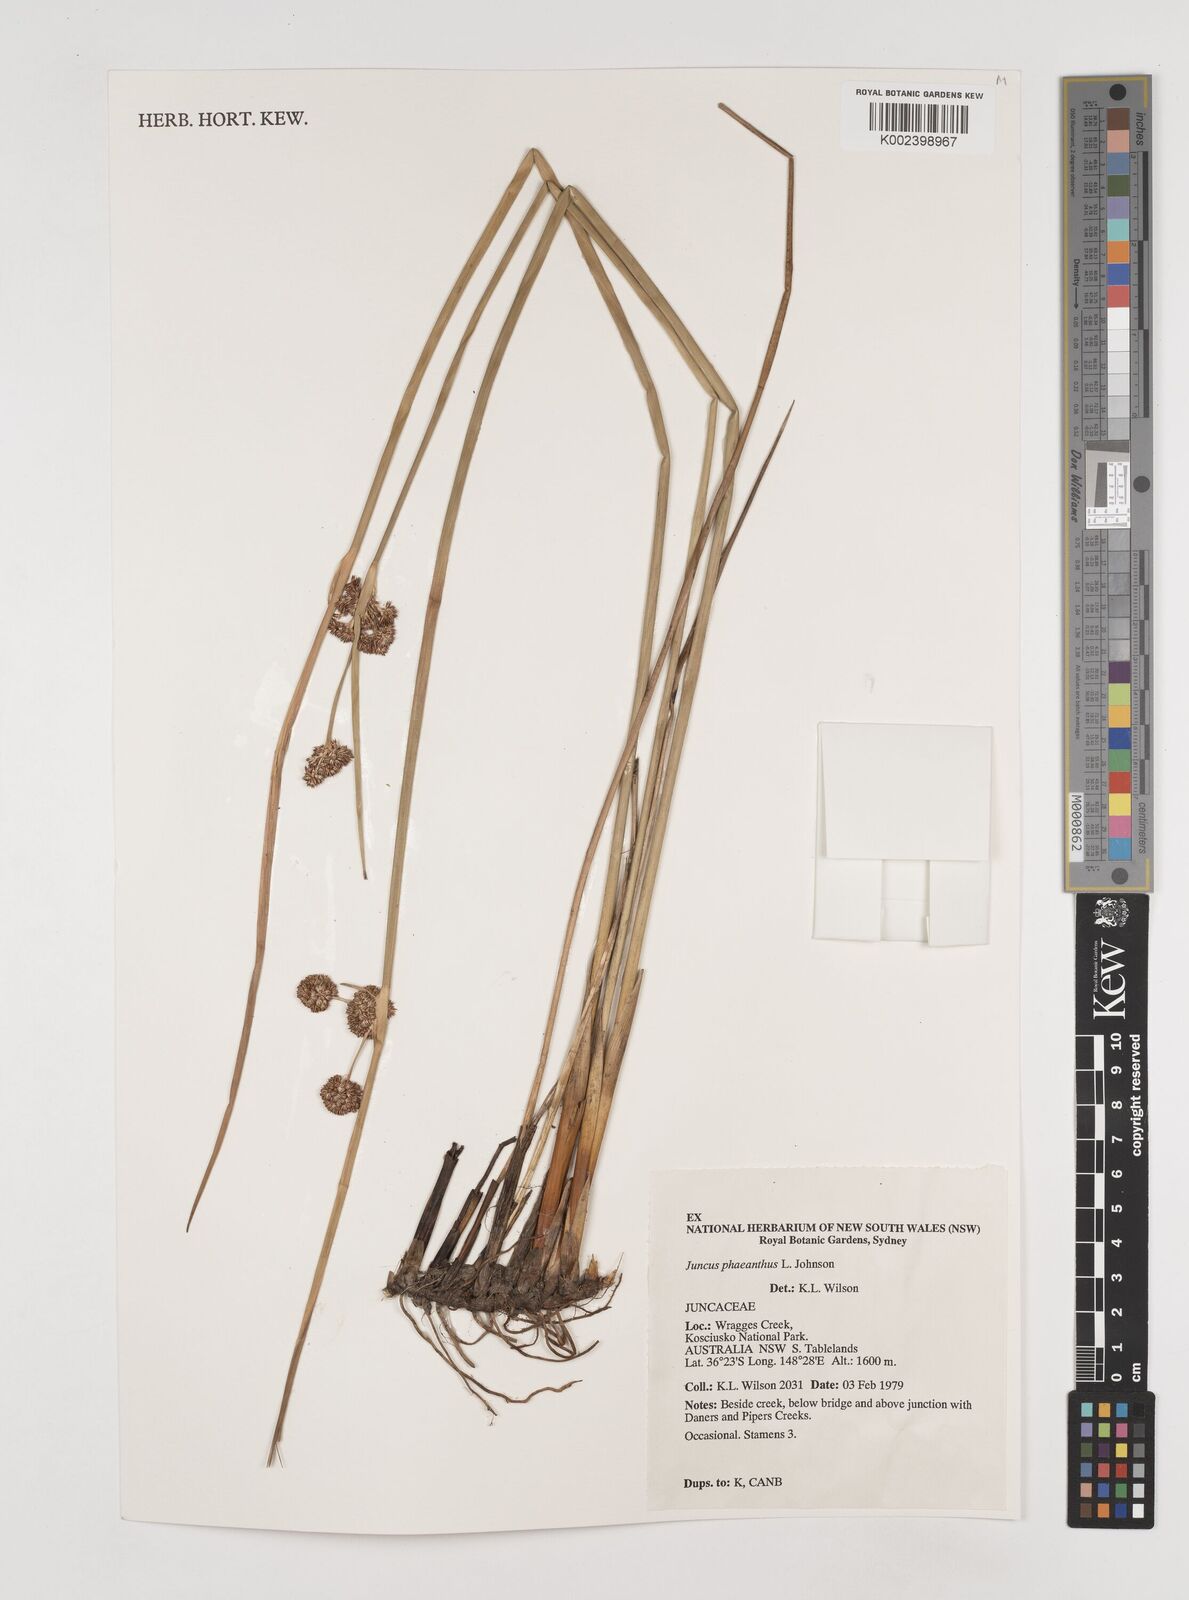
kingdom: Plantae
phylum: Tracheophyta
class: Liliopsida
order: Poales
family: Juncaceae
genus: Juncus
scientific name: Juncus phaeanthus
